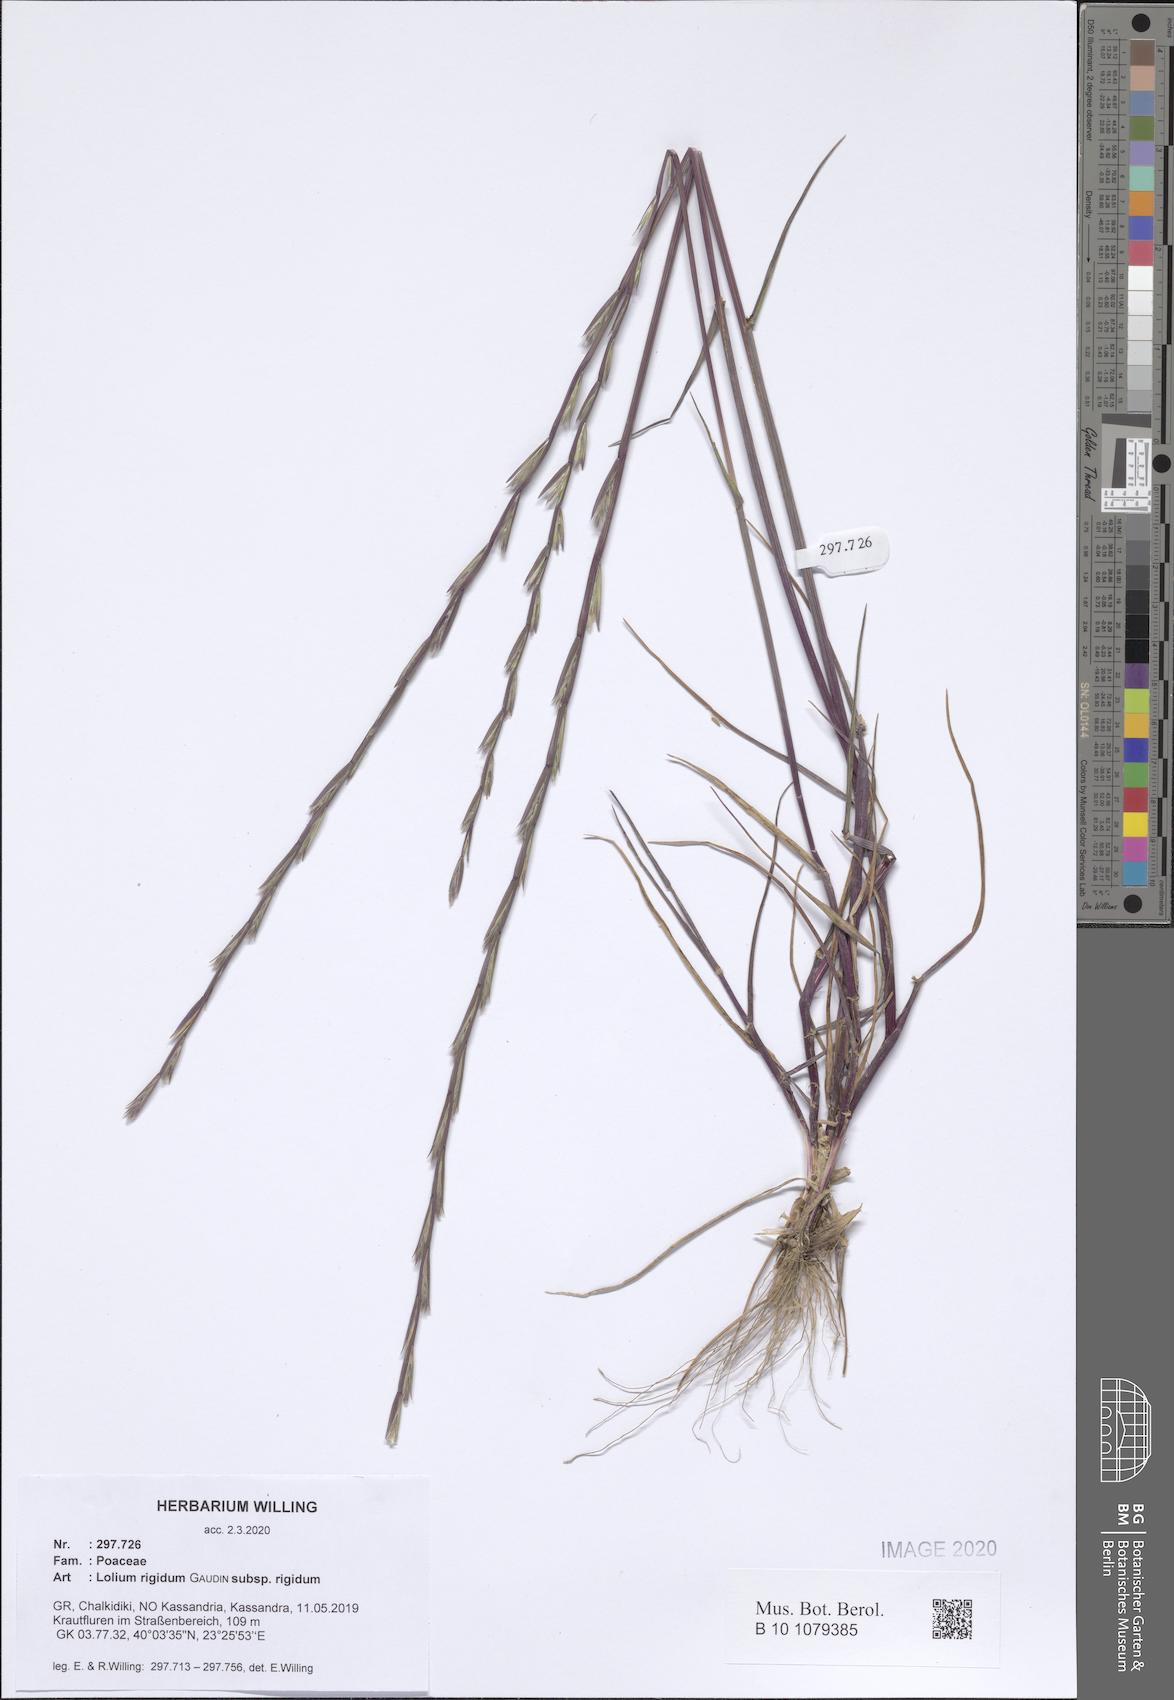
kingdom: Plantae
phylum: Tracheophyta
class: Liliopsida
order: Poales
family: Poaceae
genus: Lolium
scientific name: Lolium rigidum
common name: Wimmera ryegrass
